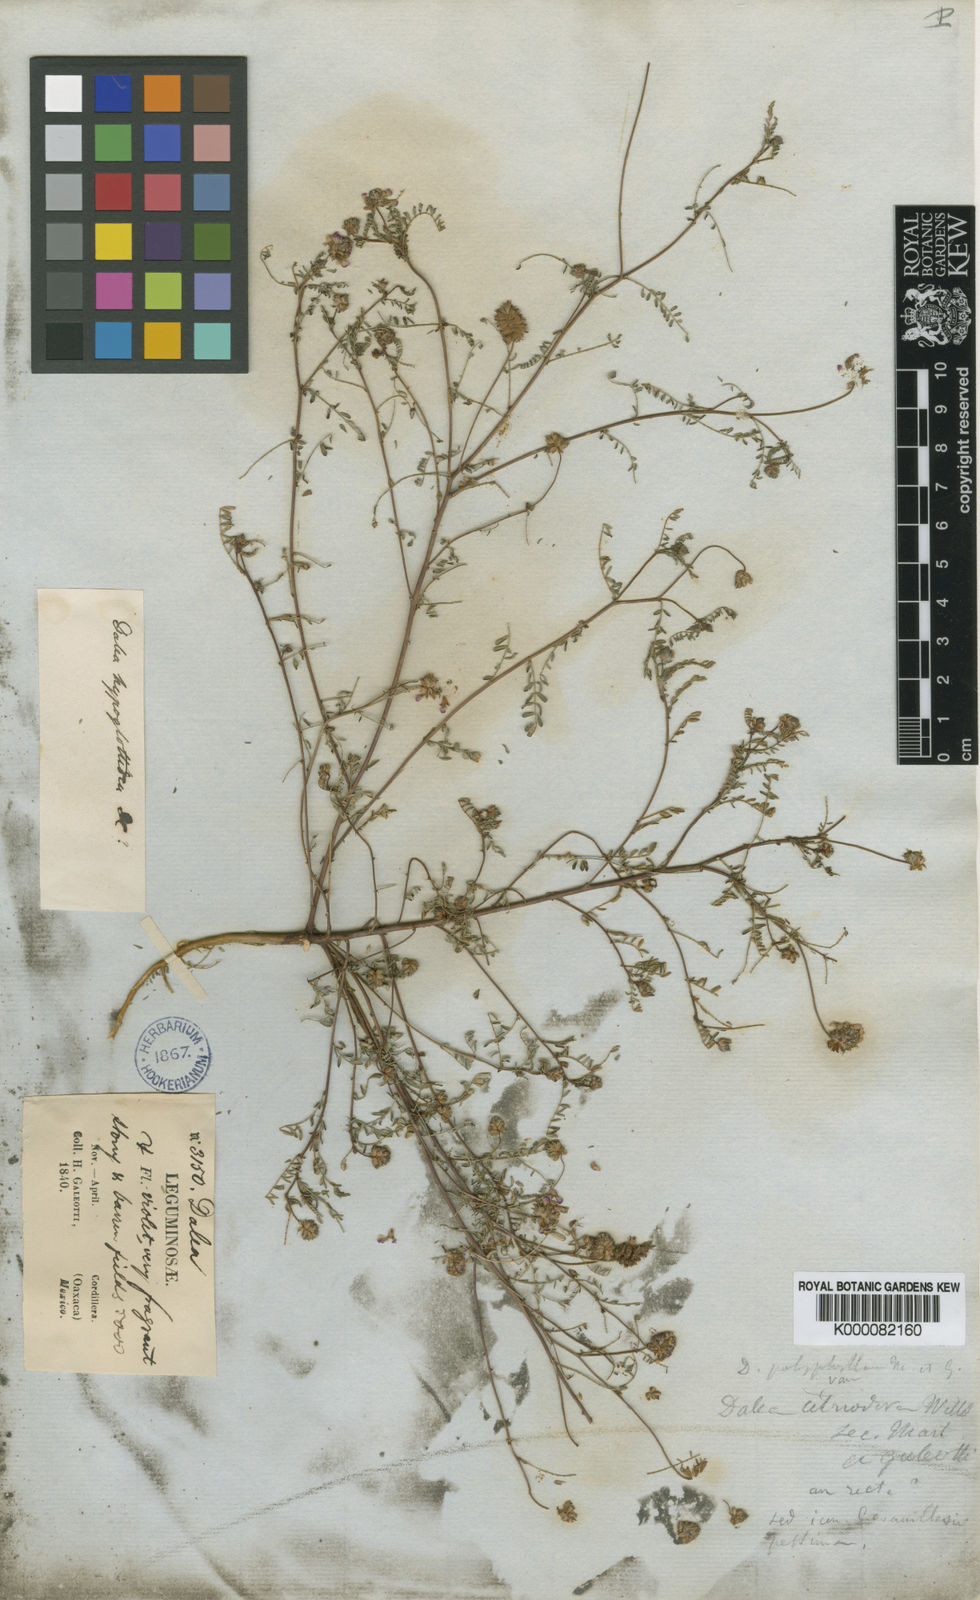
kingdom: Plantae
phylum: Tracheophyta
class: Magnoliopsida
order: Fabales
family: Fabaceae
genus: Dalea
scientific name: Dalea foliolosa
